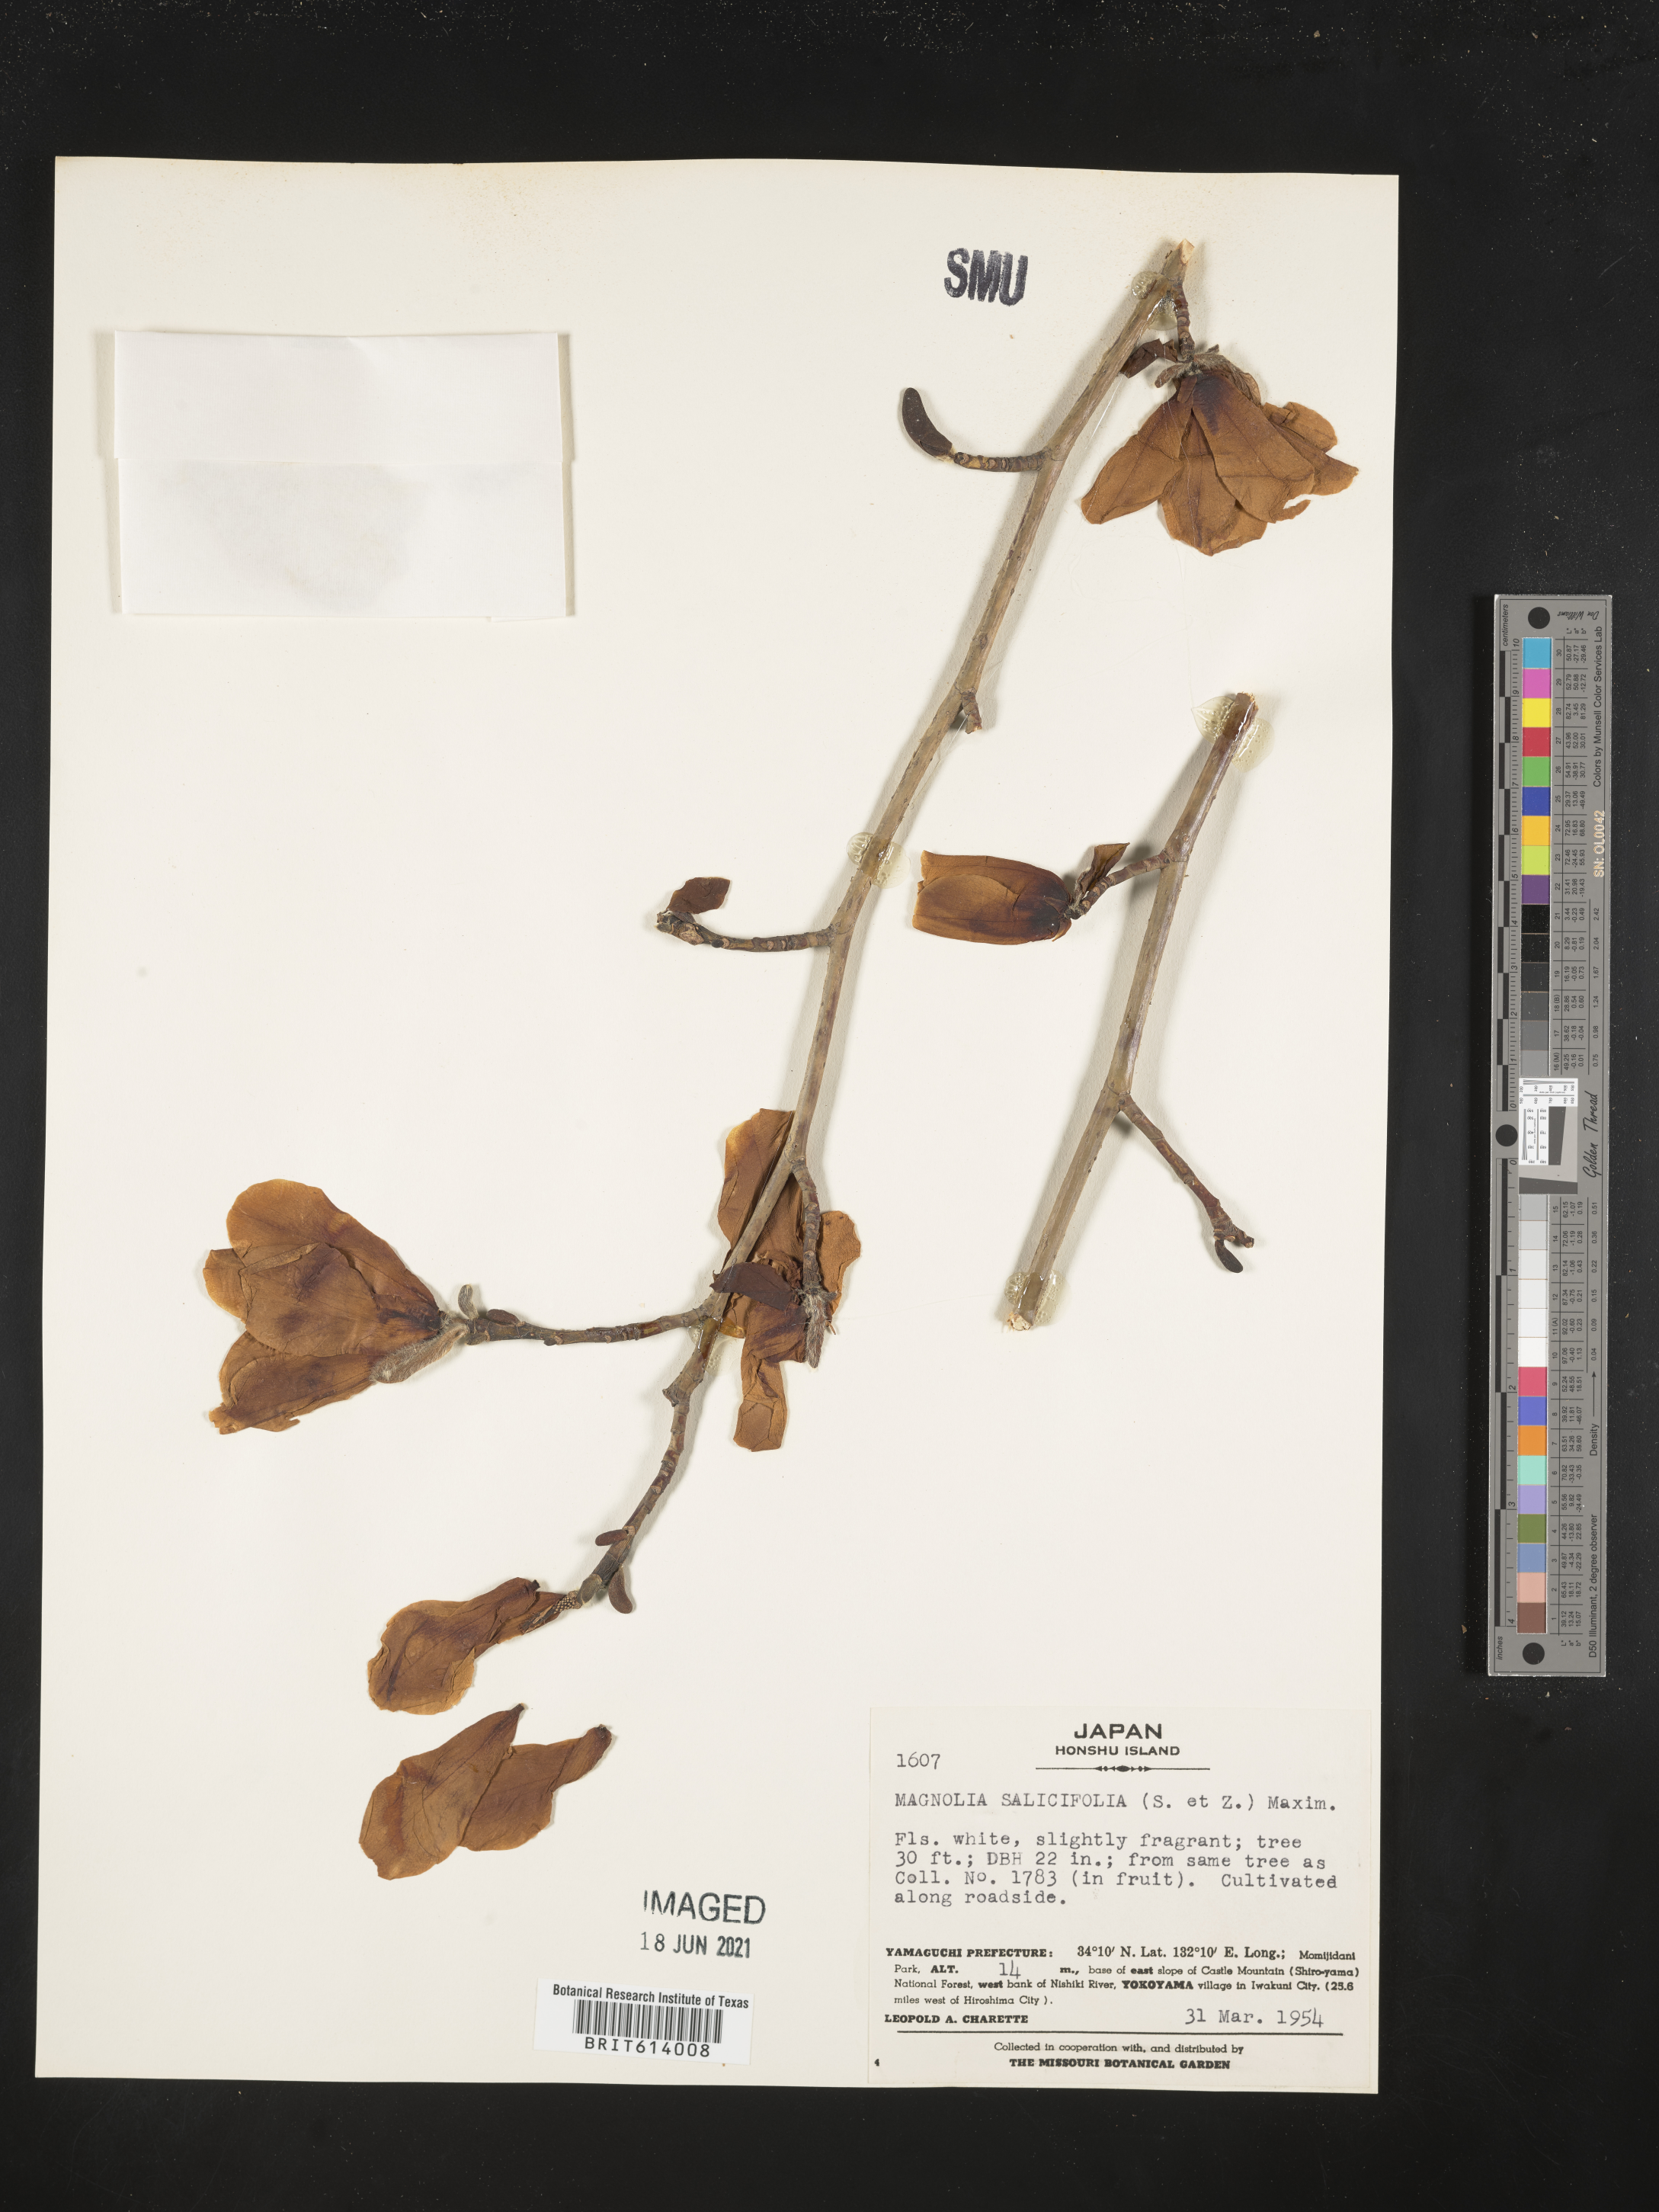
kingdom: Plantae
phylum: Tracheophyta
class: Magnoliopsida
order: Magnoliales
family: Magnoliaceae
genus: Magnolia
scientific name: Magnolia salicifolia
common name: Anise magnolia
